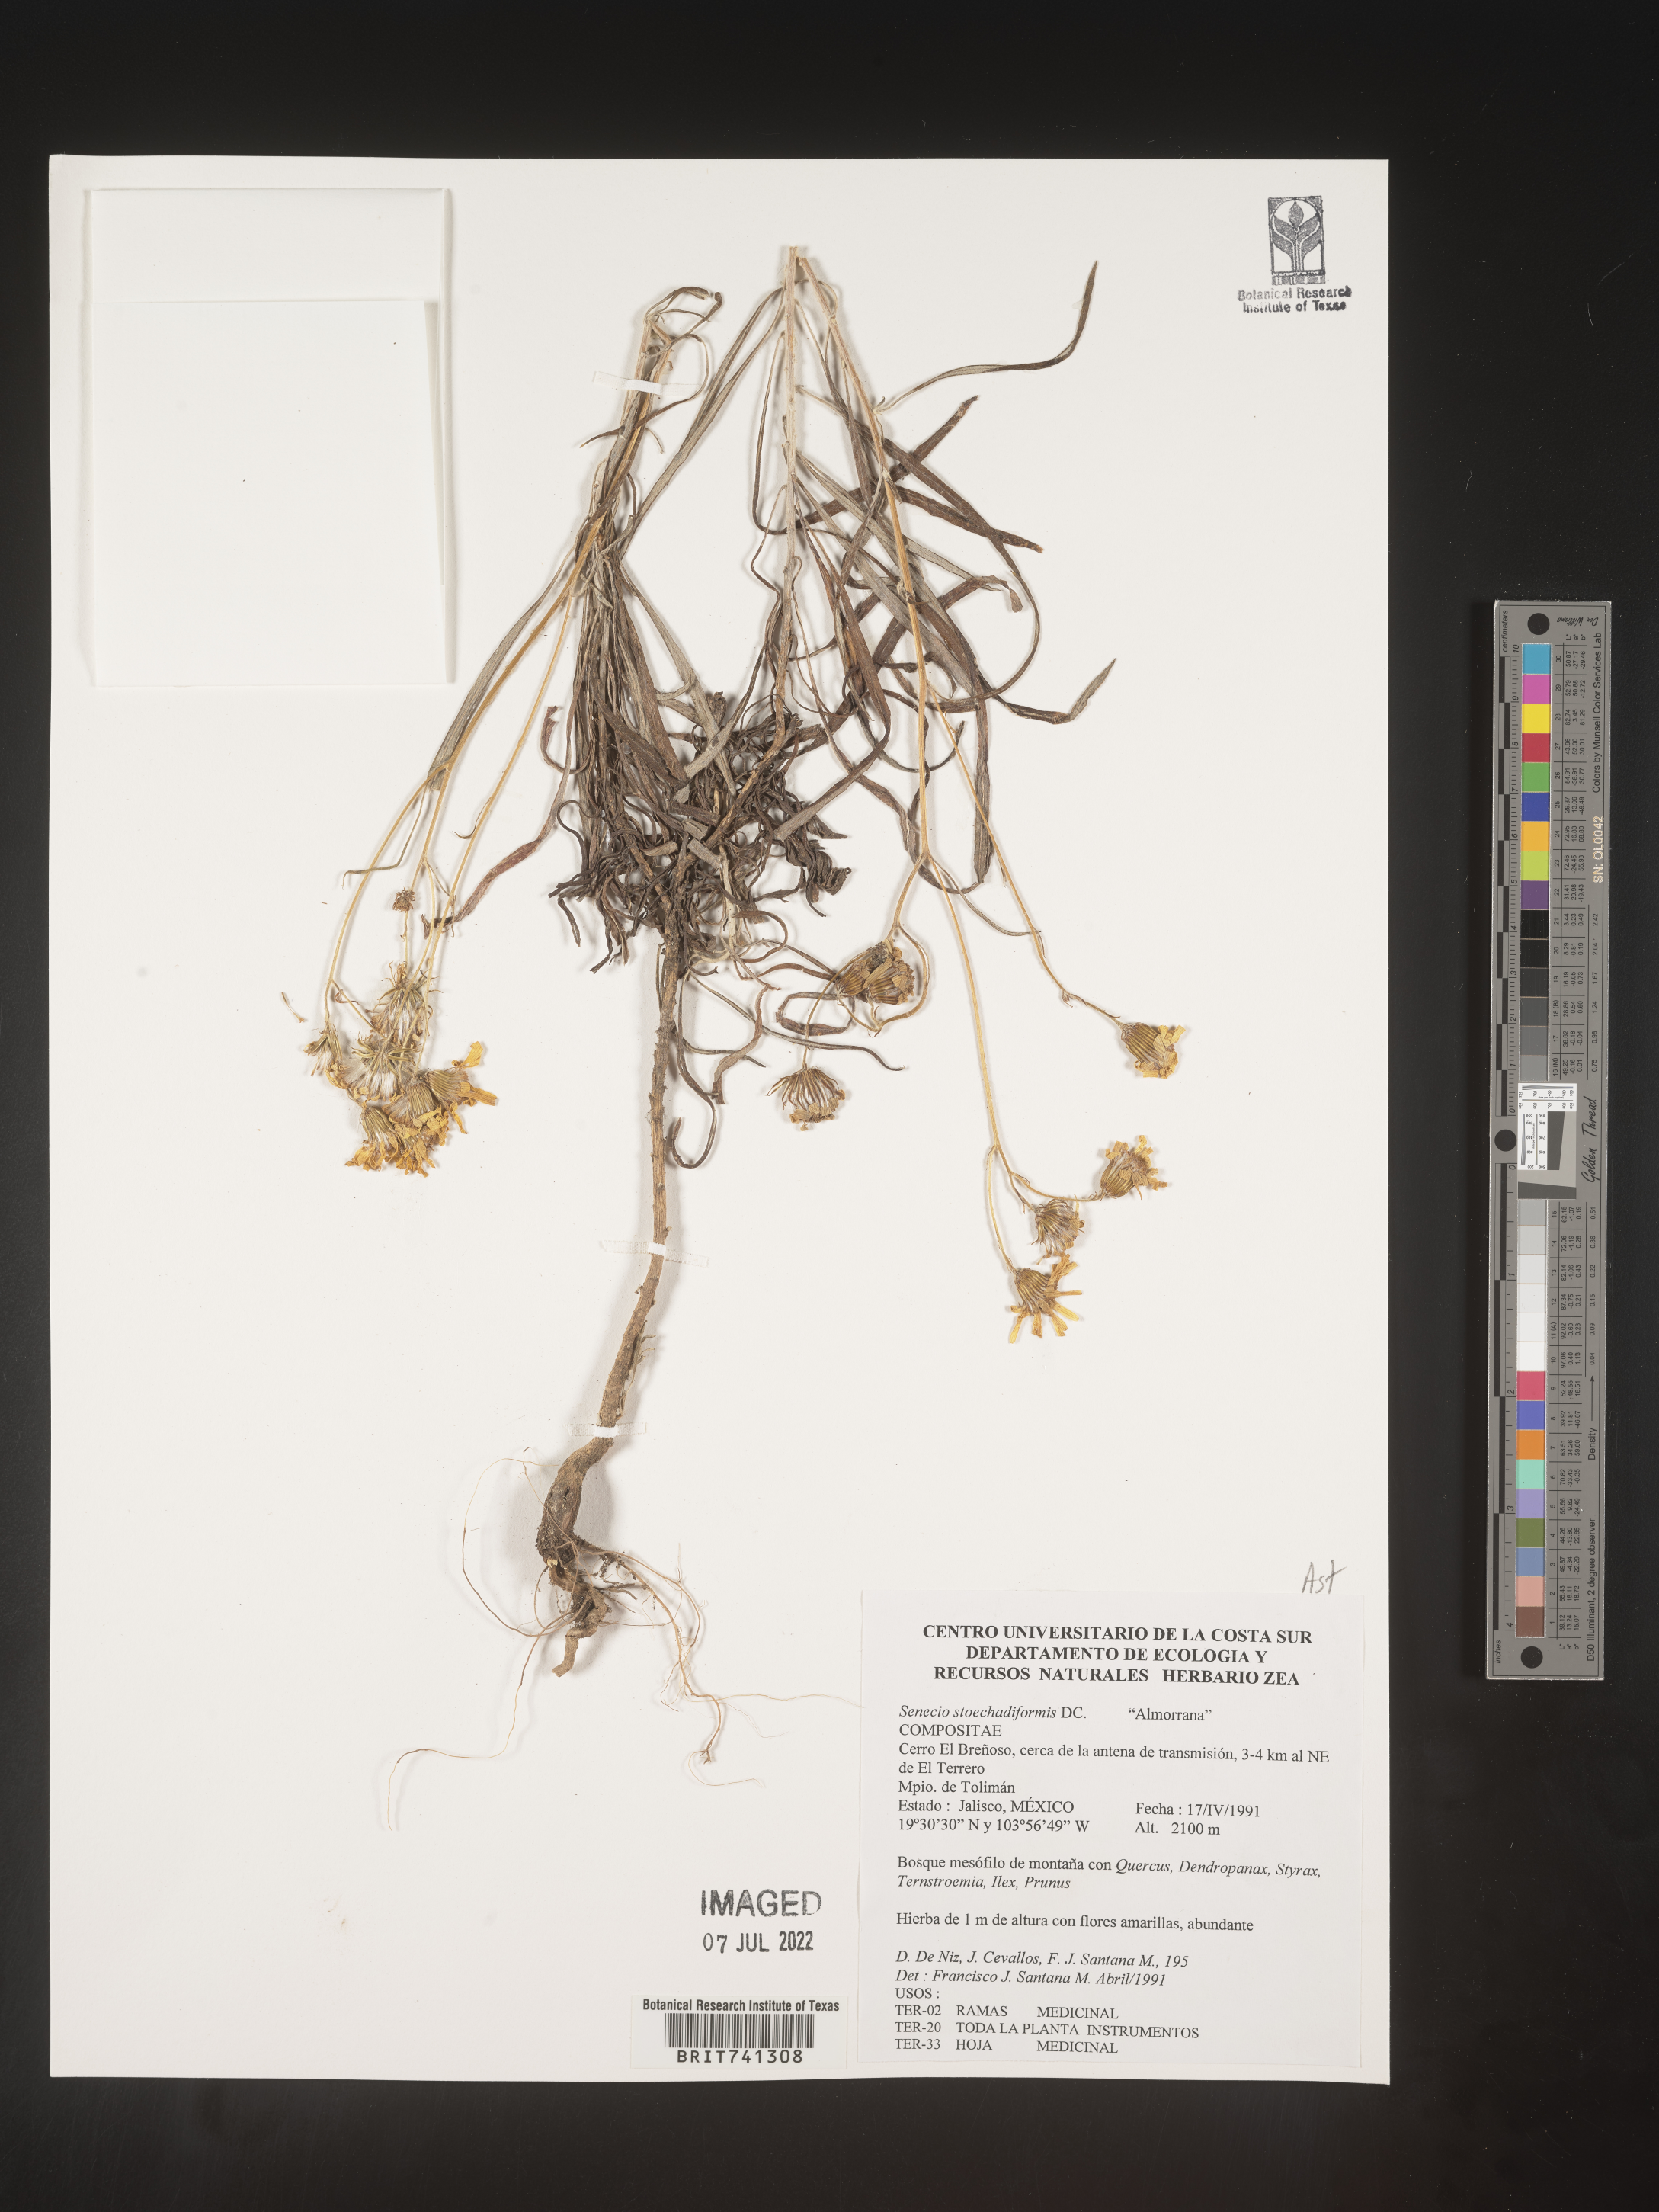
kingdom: Plantae
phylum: Tracheophyta
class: Magnoliopsida
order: Asterales
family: Asteraceae
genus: Senecio
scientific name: Senecio stoechadiformis
